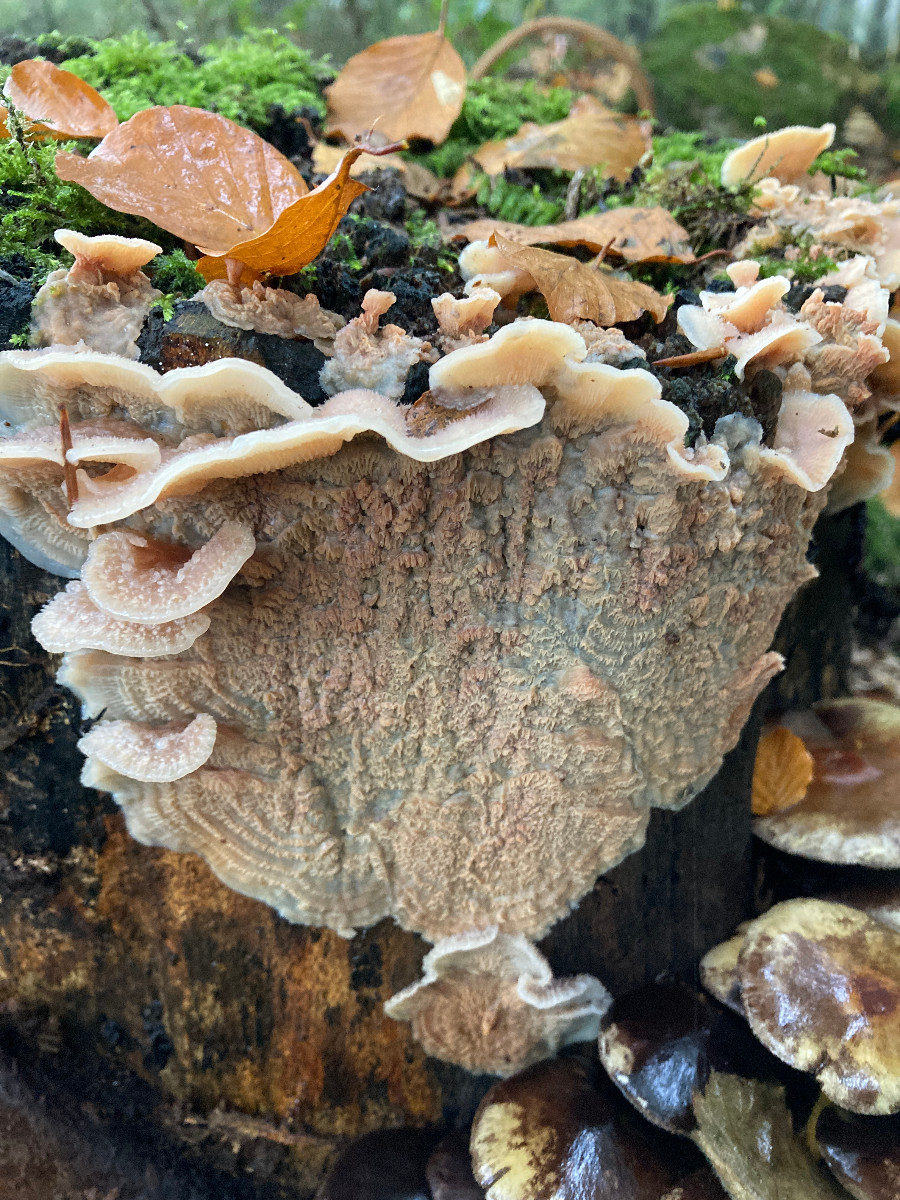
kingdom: Fungi
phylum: Basidiomycota
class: Agaricomycetes
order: Polyporales
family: Meruliaceae
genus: Phlebia
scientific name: Phlebia tremellosa
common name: bævrende åresvamp
